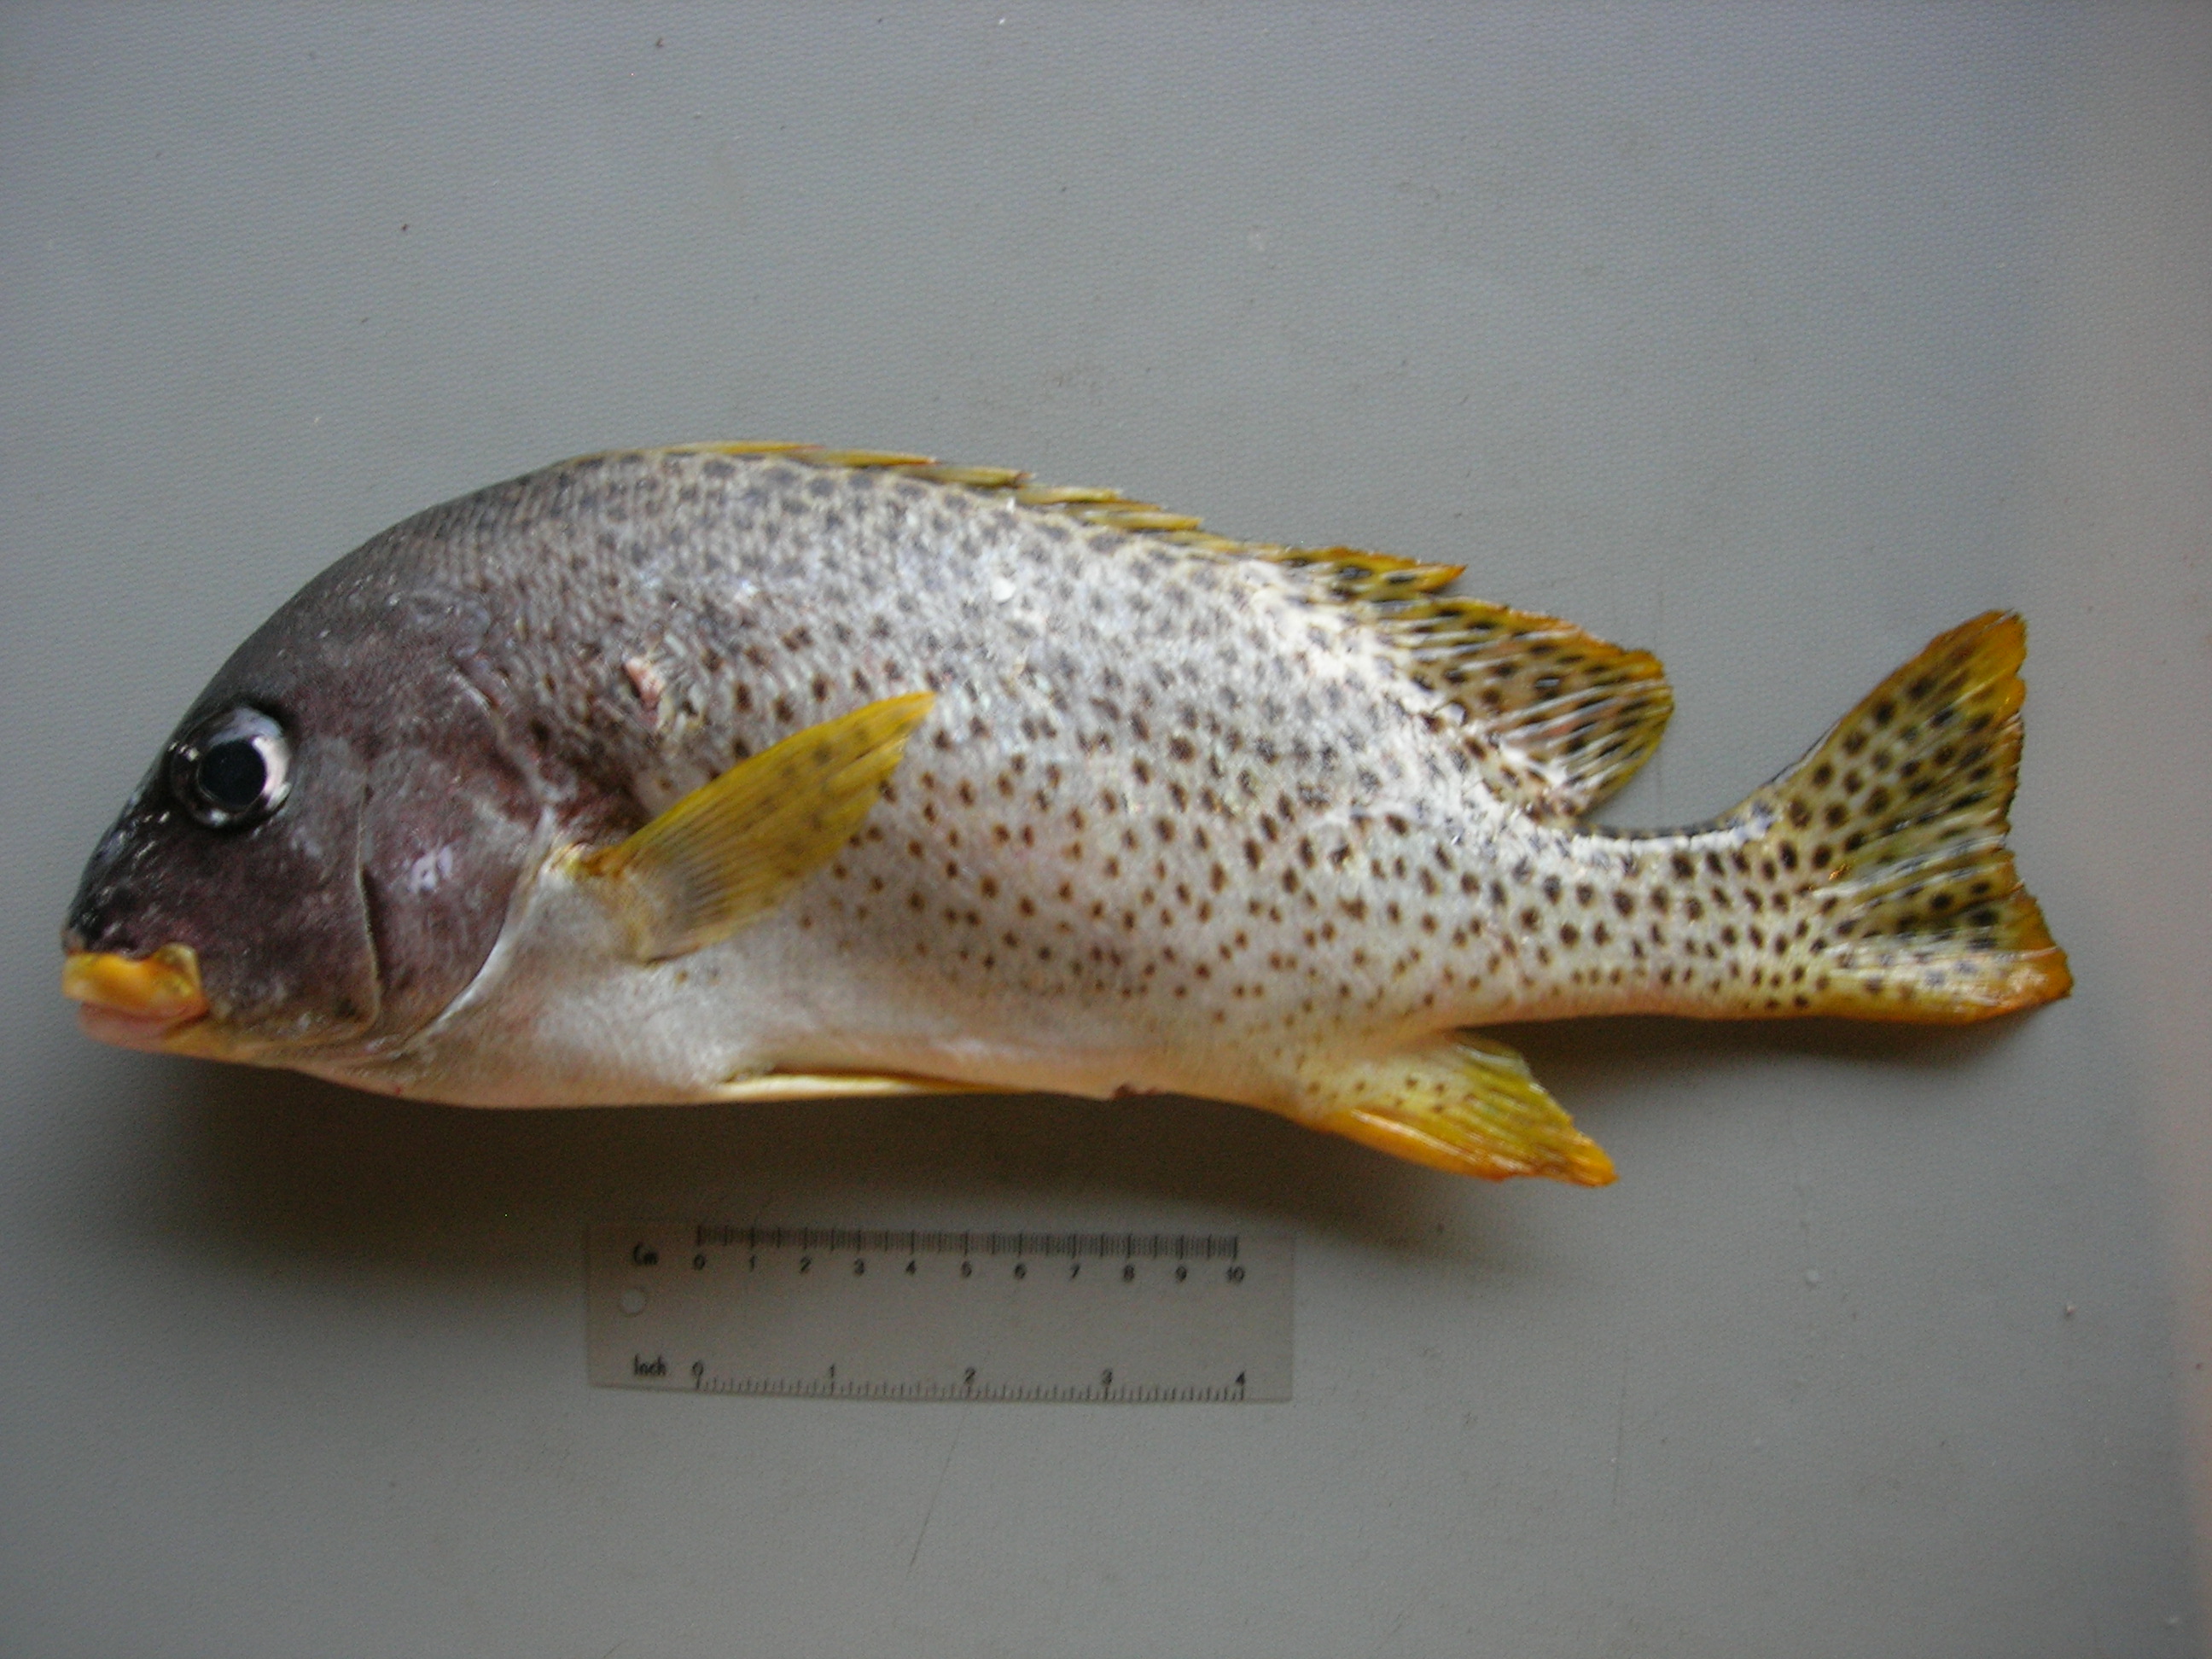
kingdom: Animalia
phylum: Chordata
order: Perciformes
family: Haemulidae
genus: Plectorhinchus
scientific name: Plectorhinchus gaterinus
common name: Blackspotted rubberlip
